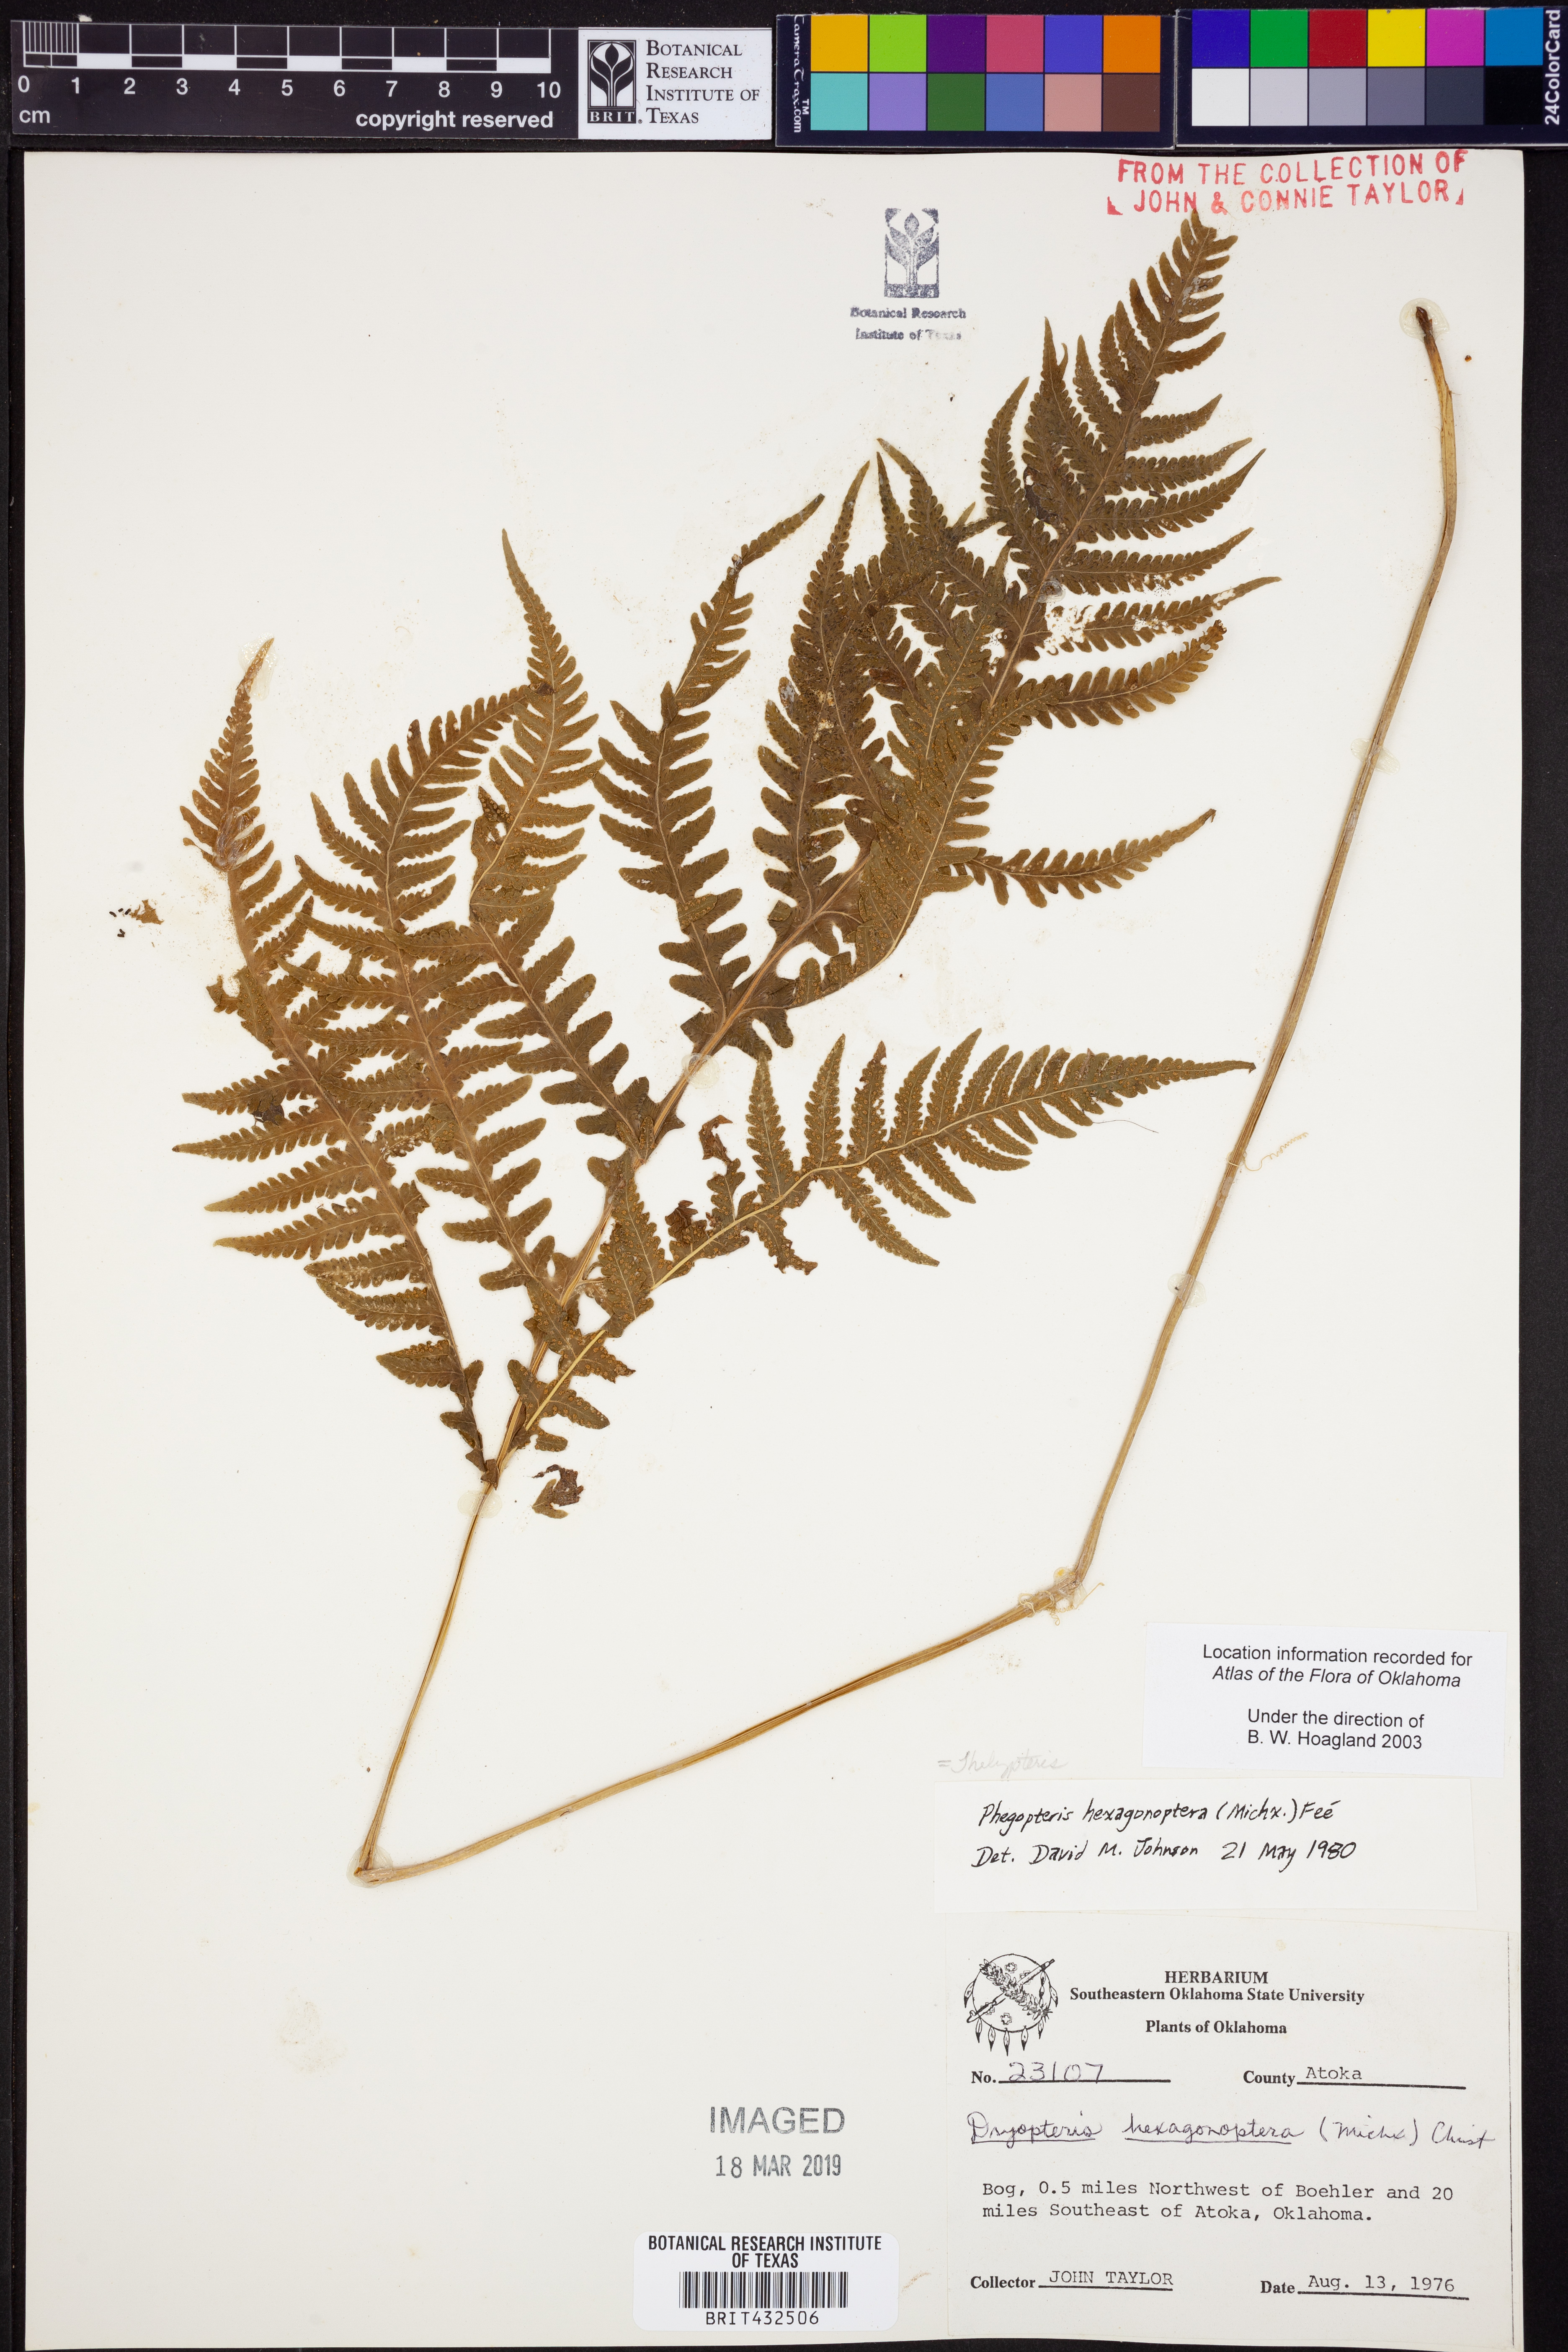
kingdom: Plantae
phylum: Tracheophyta
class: Polypodiopsida
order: Polypodiales
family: Thelypteridaceae
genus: Phegopteris
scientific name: Phegopteris hexagonoptera
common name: Broad beech fern
